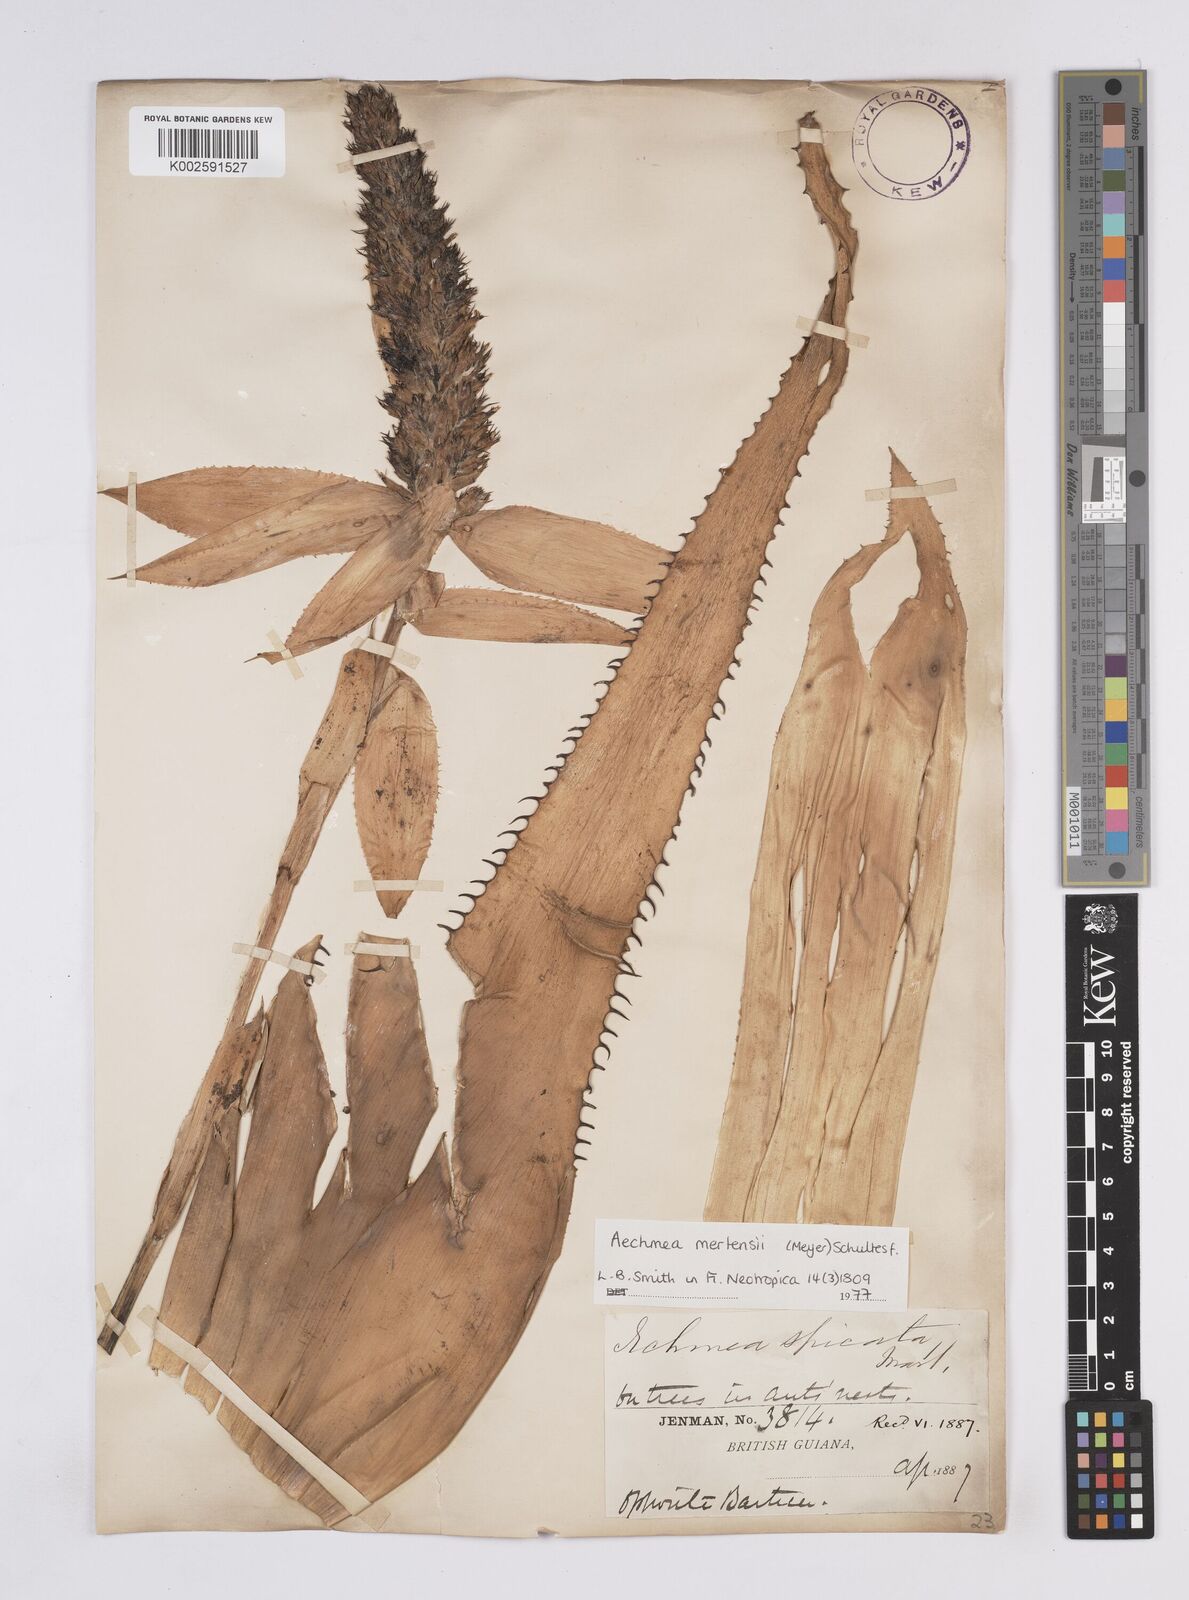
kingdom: Plantae
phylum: Tracheophyta
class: Liliopsida
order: Poales
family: Bromeliaceae
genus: Aechmea
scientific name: Aechmea mertensii
